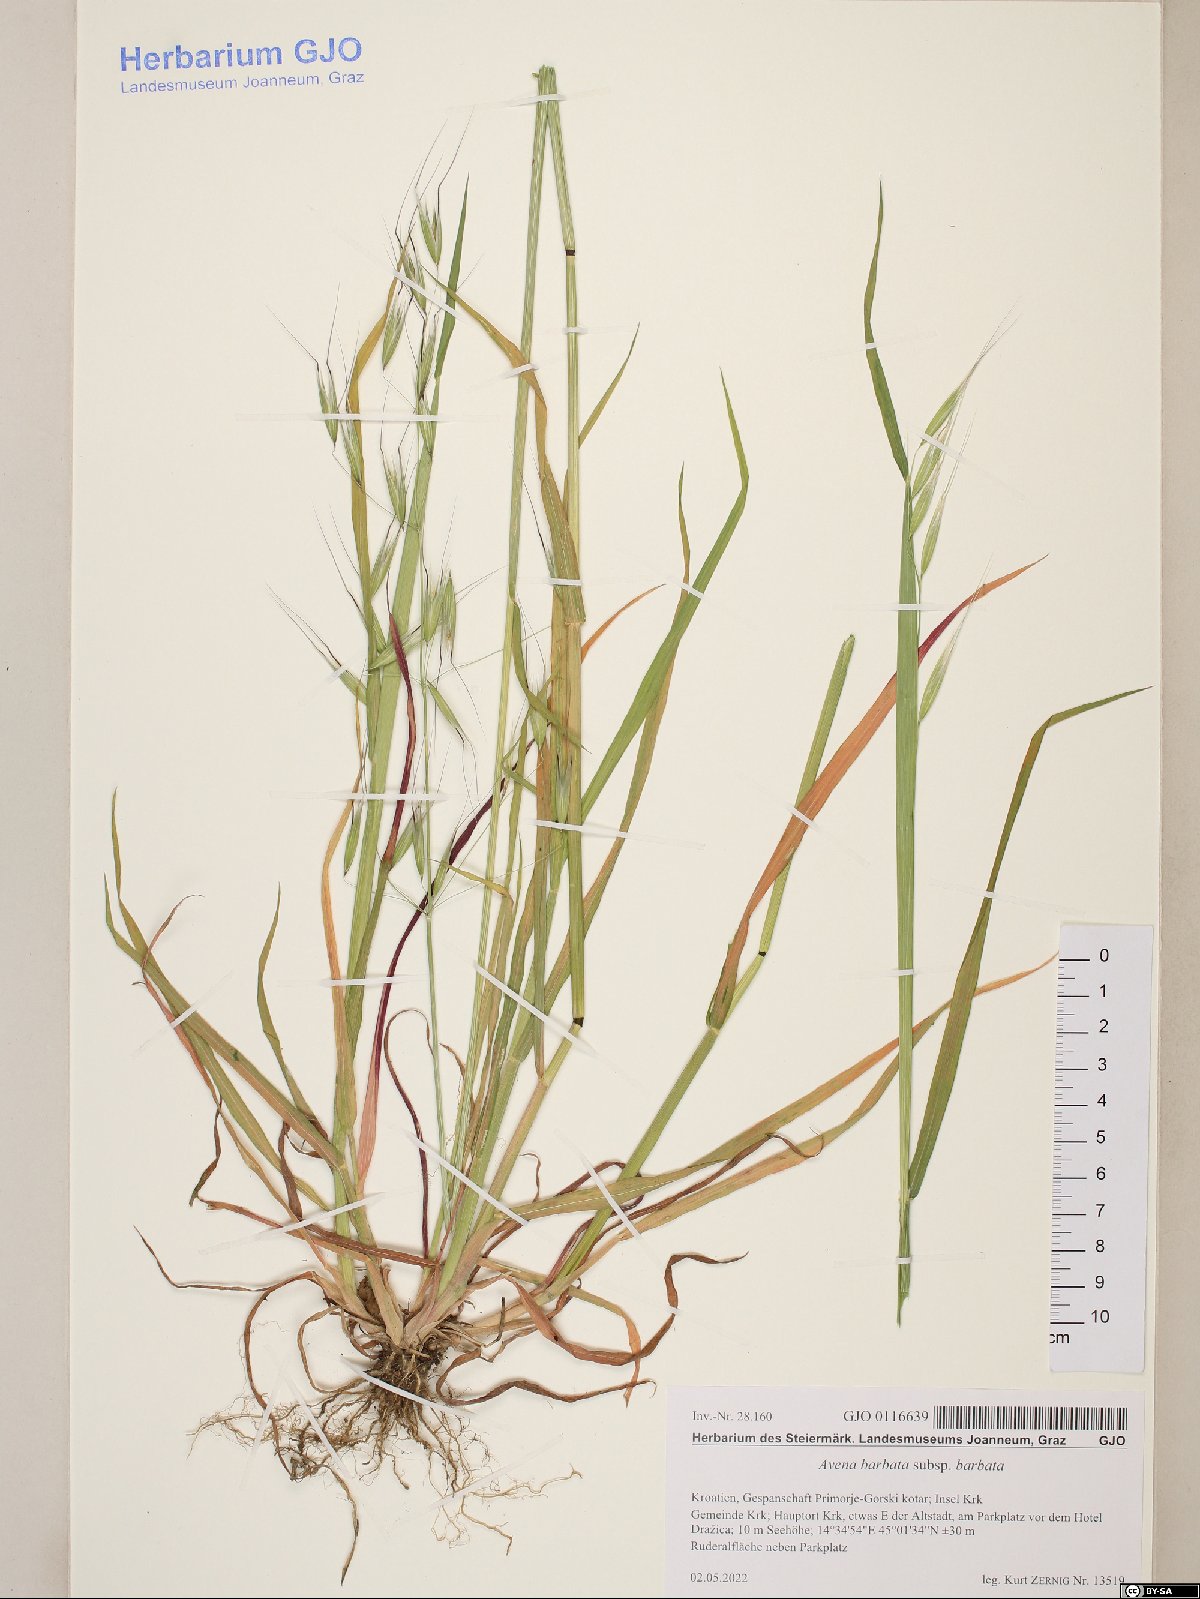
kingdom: Plantae
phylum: Tracheophyta
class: Liliopsida
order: Poales
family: Poaceae
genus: Avena
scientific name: Avena barbata
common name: Slender oat
